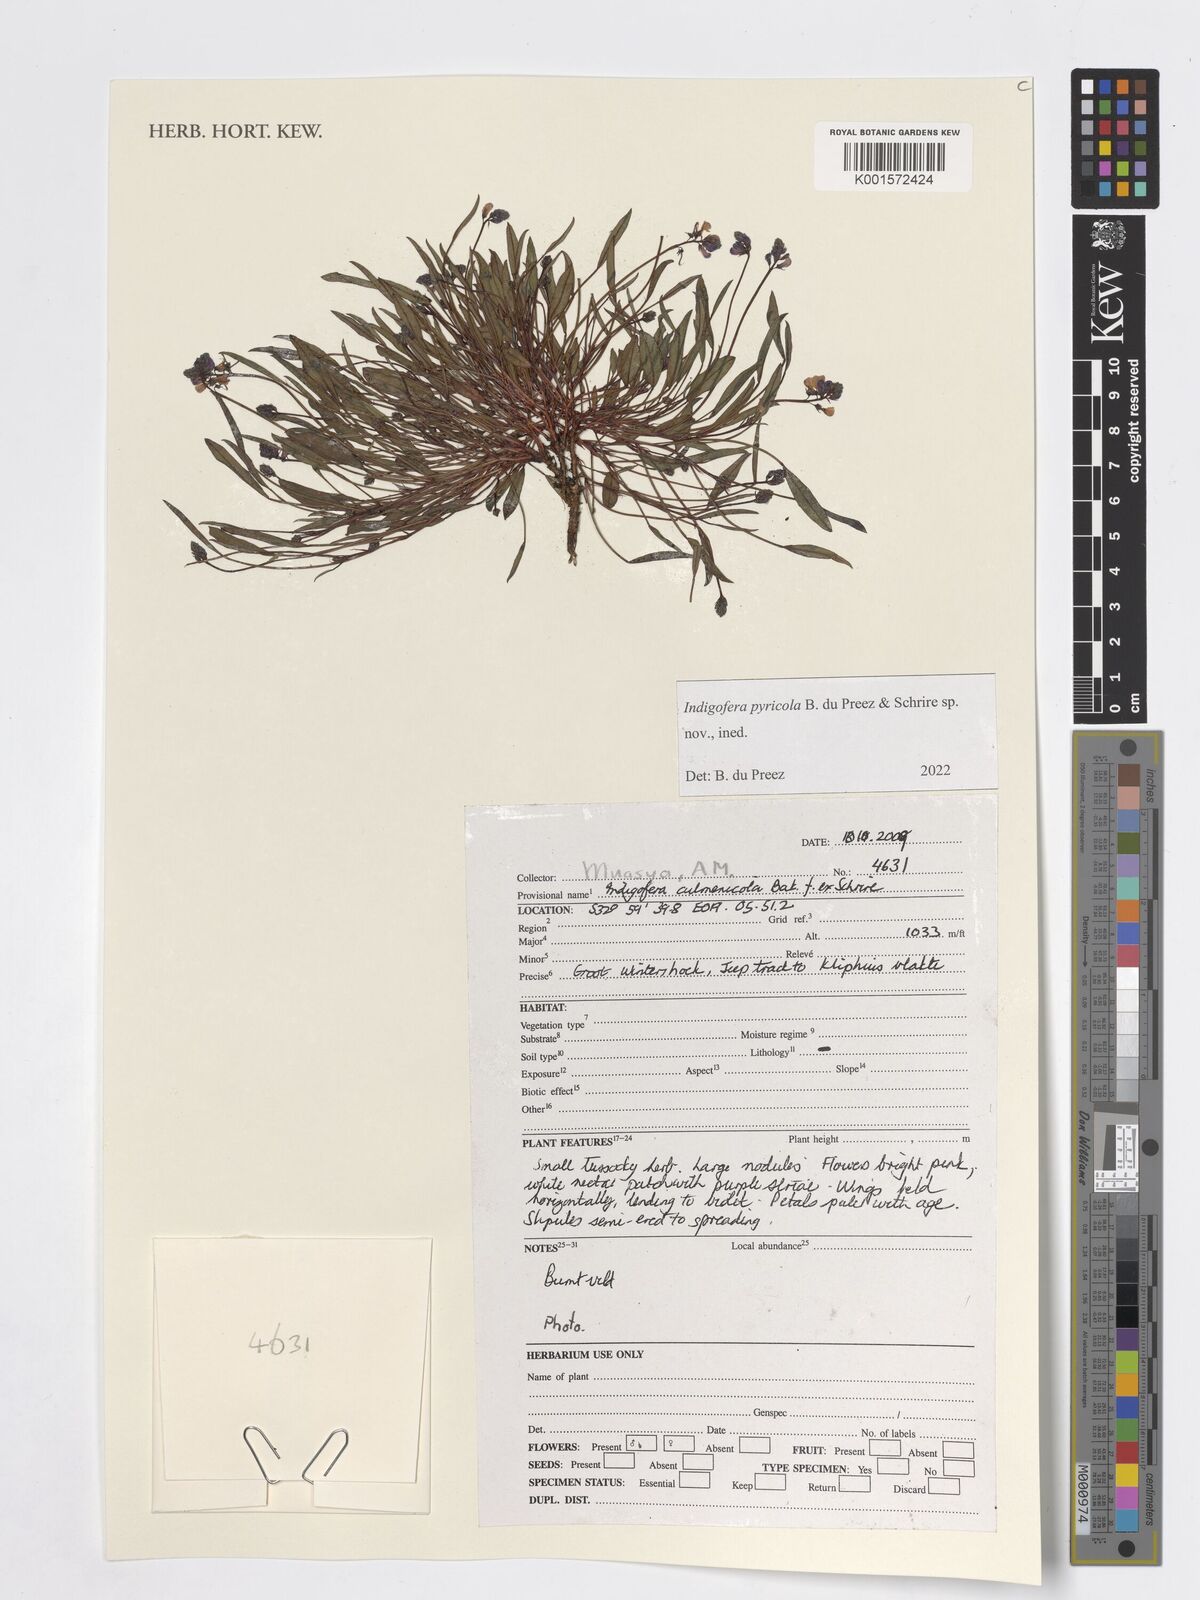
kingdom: Plantae
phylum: Tracheophyta
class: Magnoliopsida
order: Fabales
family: Fabaceae
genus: Indigofera
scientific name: Indigofera
